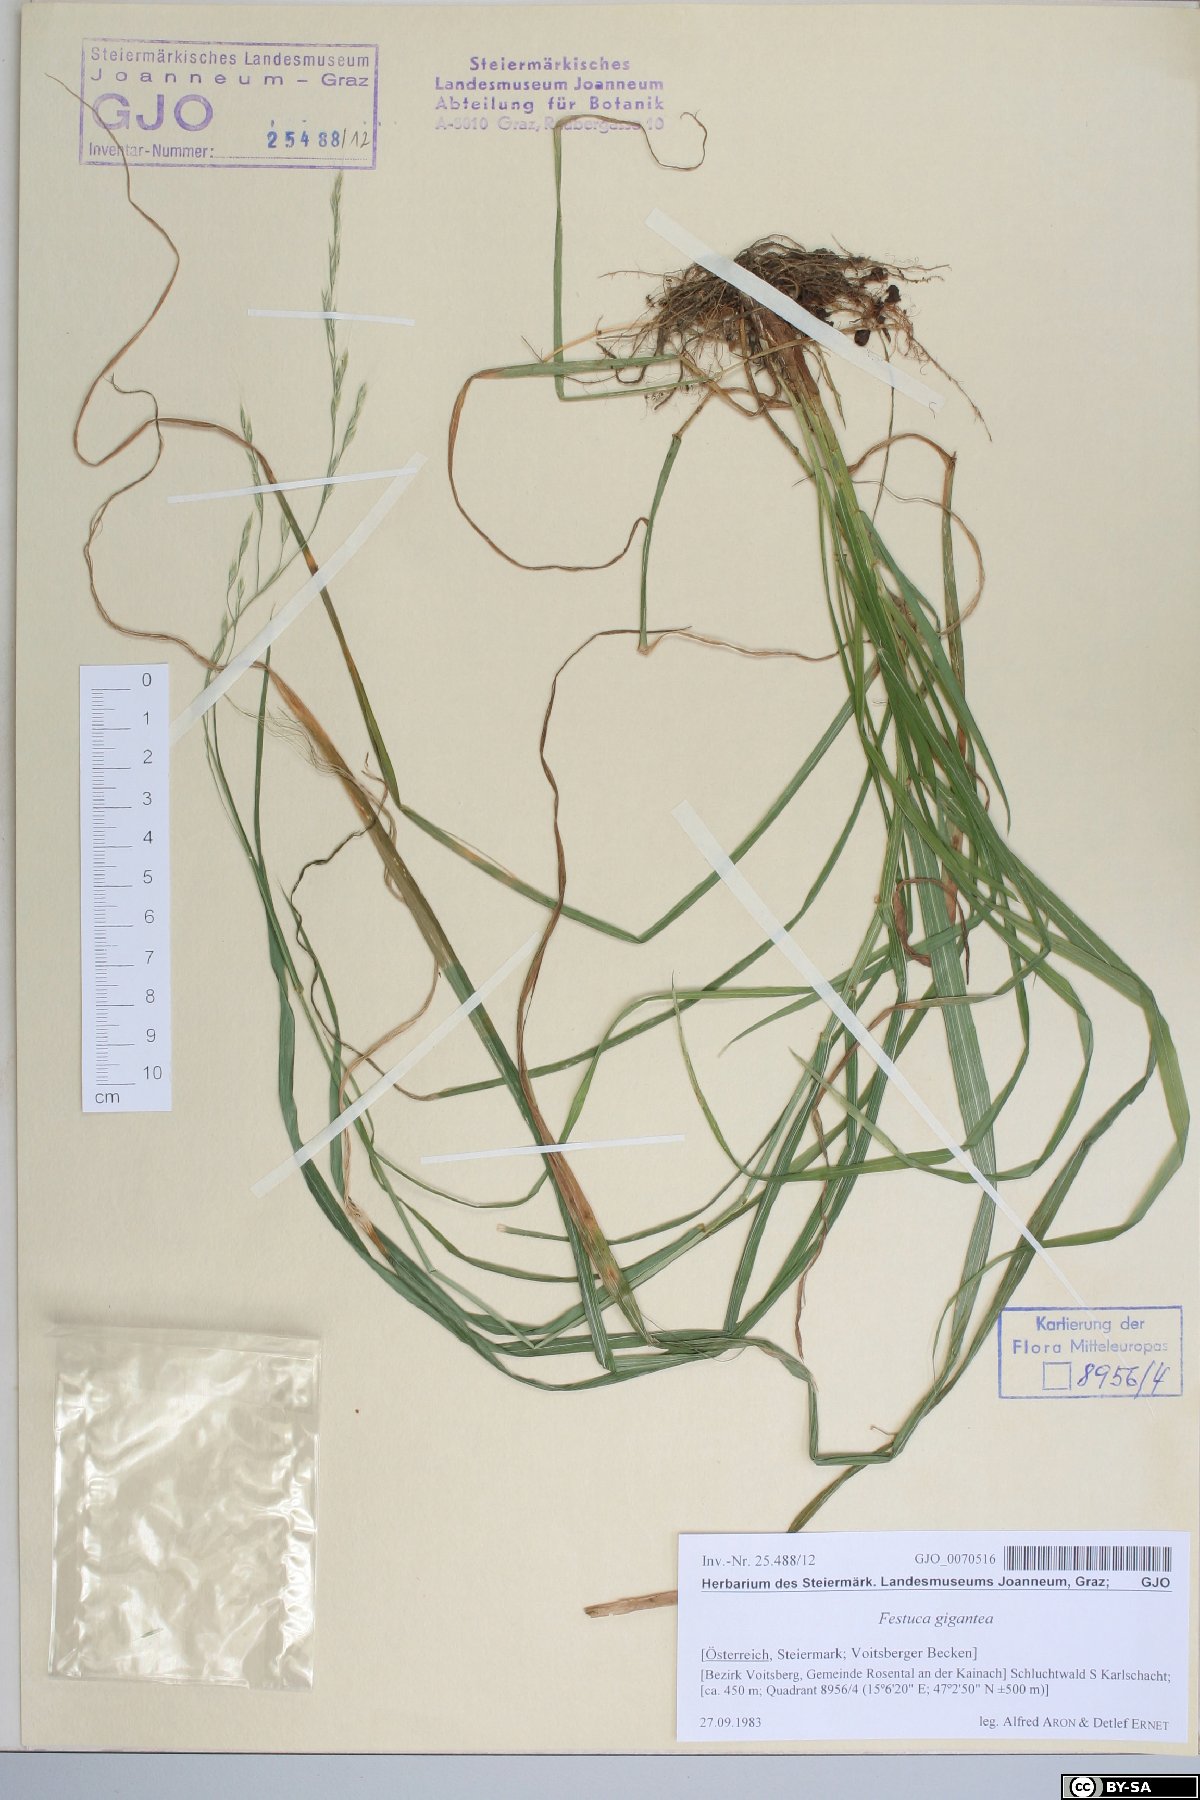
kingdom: Plantae
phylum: Tracheophyta
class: Liliopsida
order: Poales
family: Poaceae
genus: Lolium
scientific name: Lolium giganteum
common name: Giant fescue
